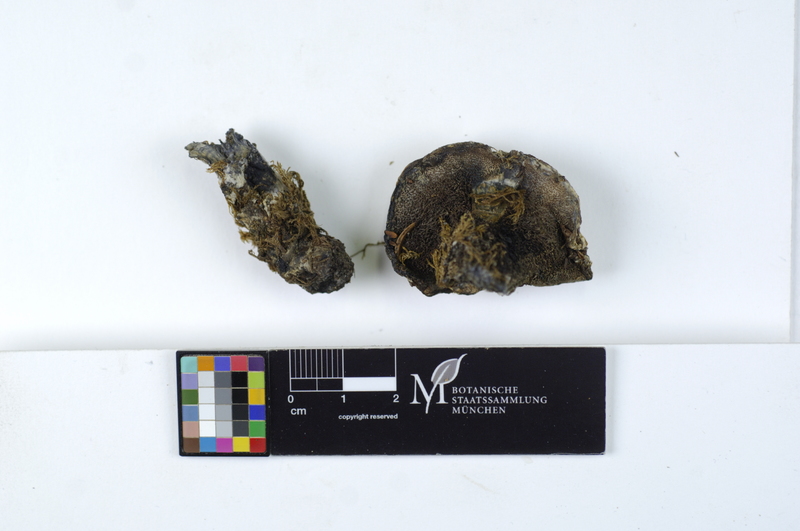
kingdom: Fungi
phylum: Basidiomycota
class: Agaricomycetes
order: Thelephorales
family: Bankeraceae
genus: Hydnellum
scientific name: Hydnellum suaveolens
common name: Sweetgrass hydnellum
